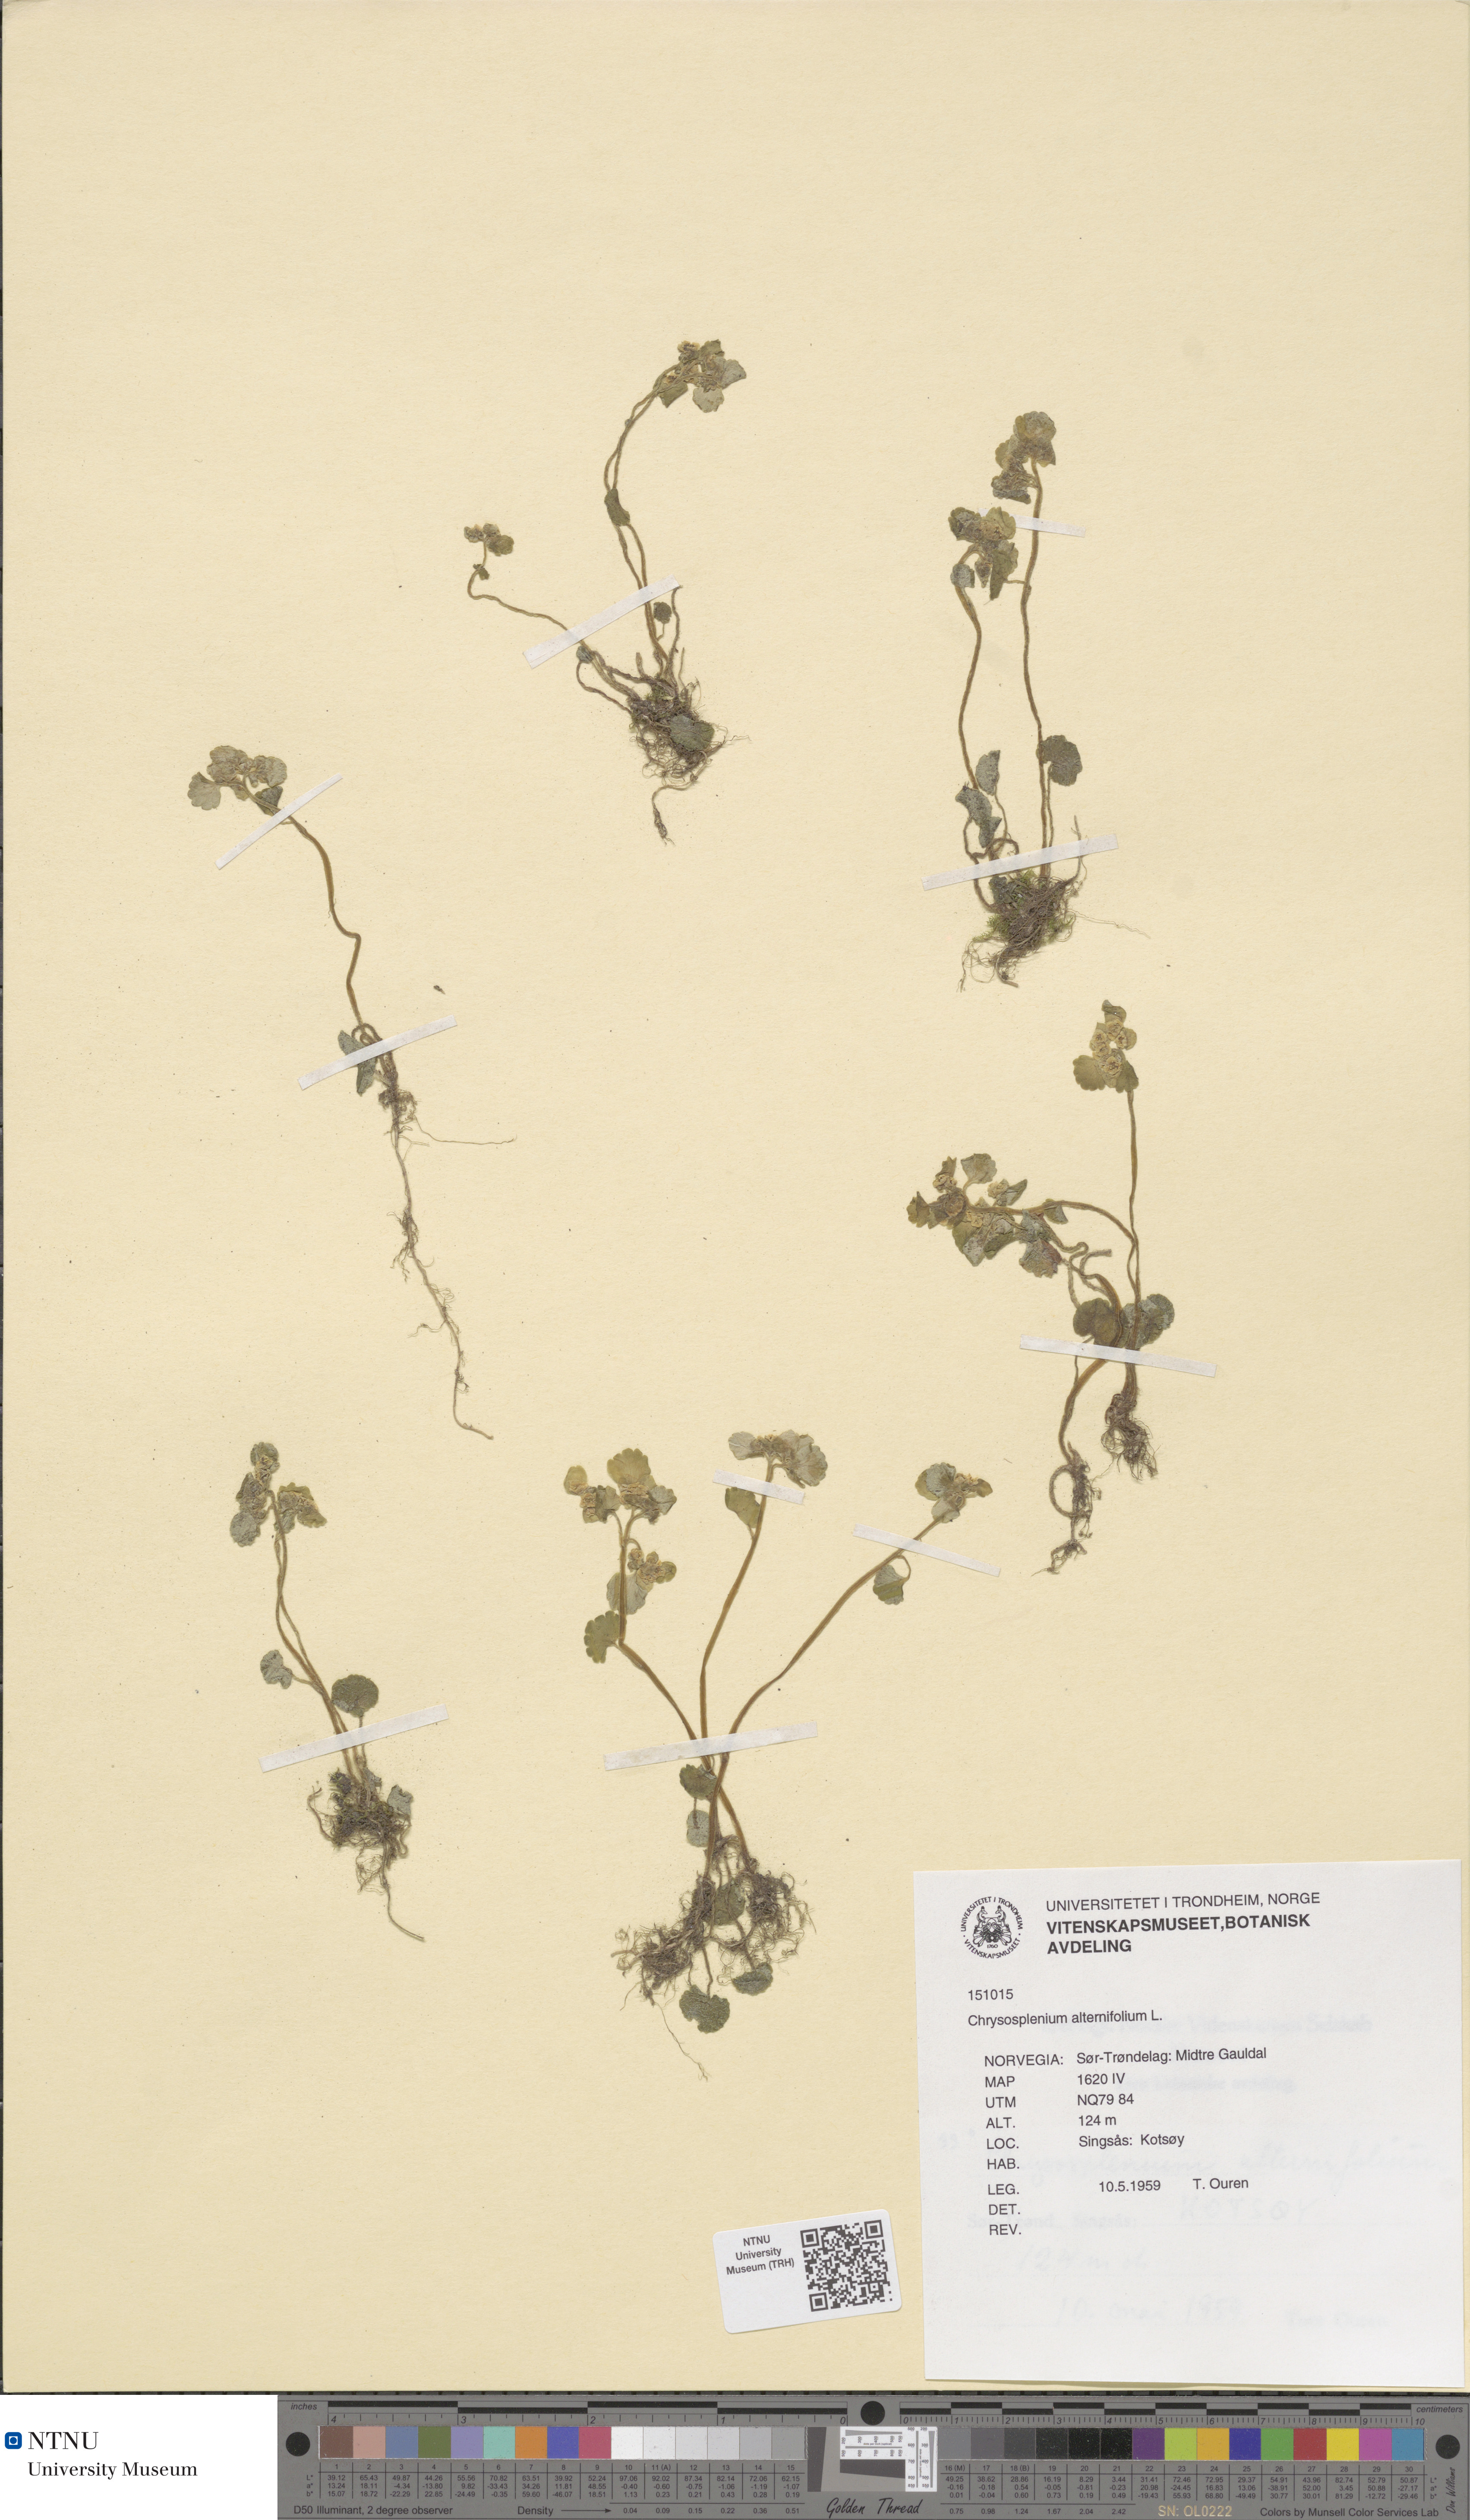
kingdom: Plantae
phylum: Tracheophyta
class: Magnoliopsida
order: Saxifragales
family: Saxifragaceae
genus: Chrysosplenium
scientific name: Chrysosplenium alternifolium
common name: Alternate-leaved golden-saxifrage
